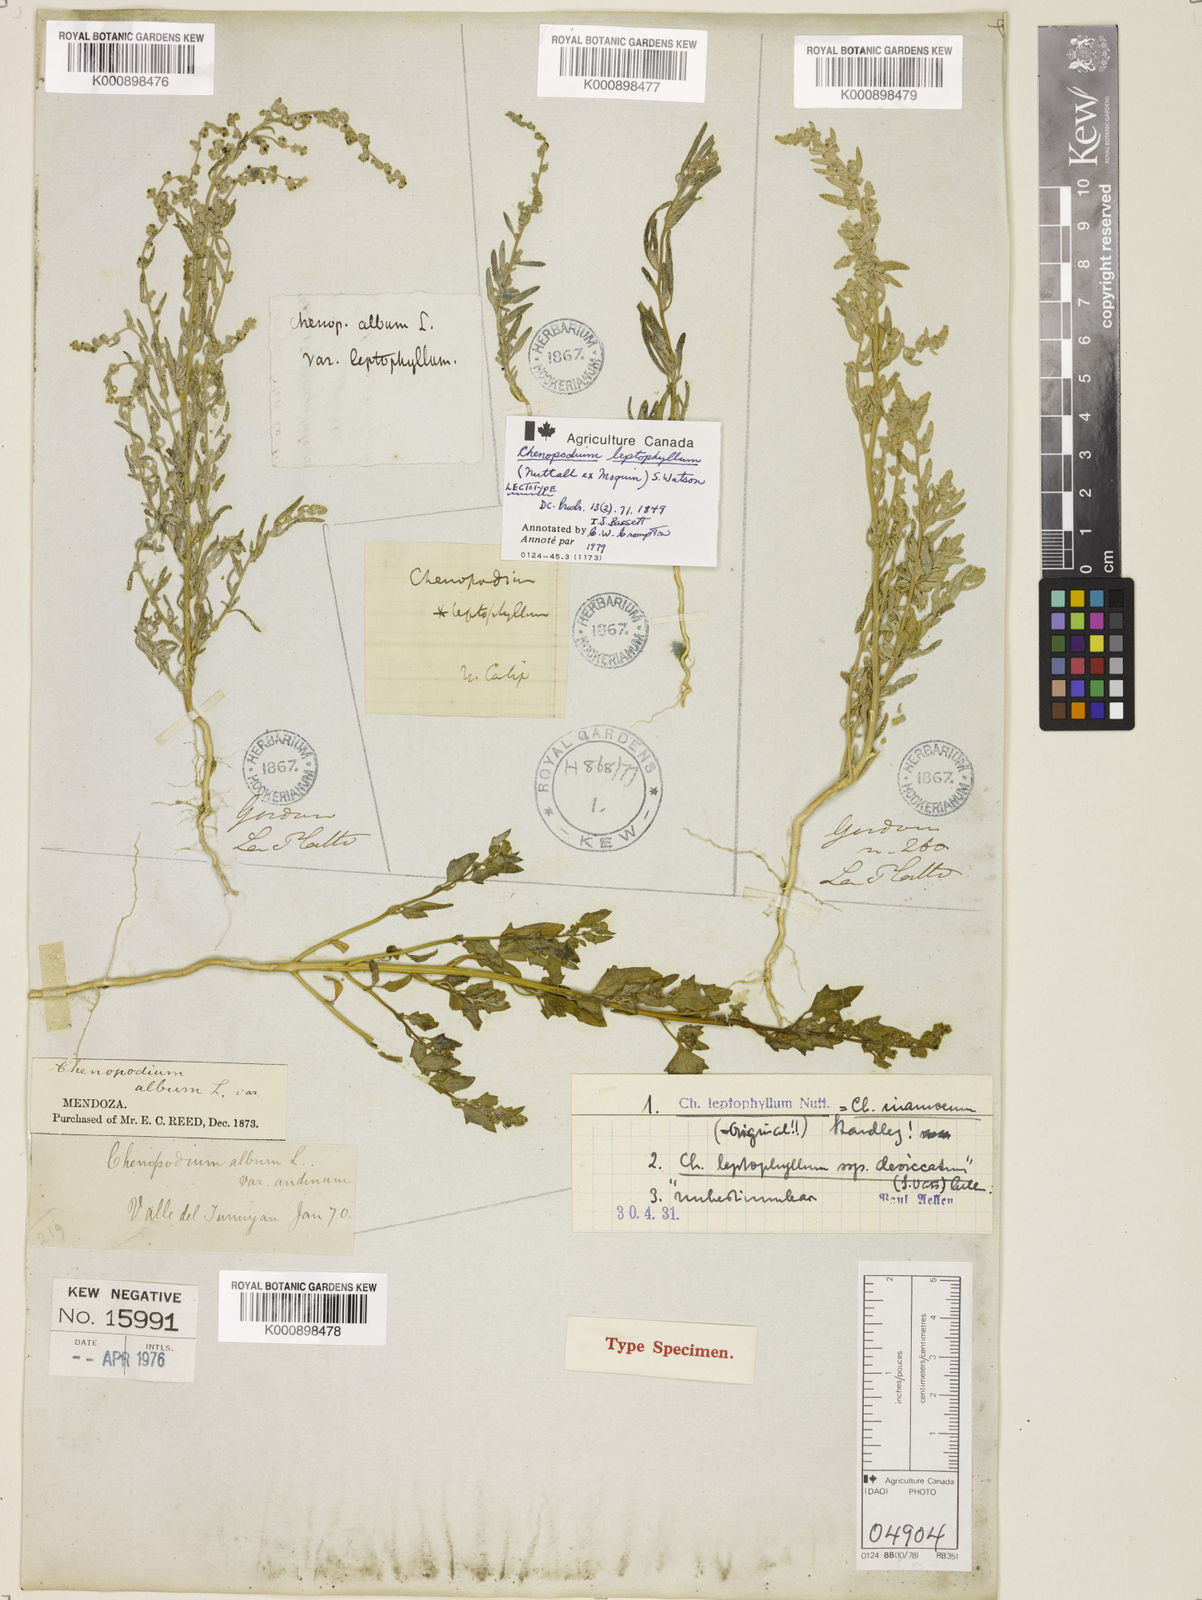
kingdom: Plantae
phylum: Tracheophyta
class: Magnoliopsida
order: Caryophyllales
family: Amaranthaceae
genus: Chenopodium
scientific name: Chenopodium leptophyllum
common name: Narrow-leaf goosefoot
